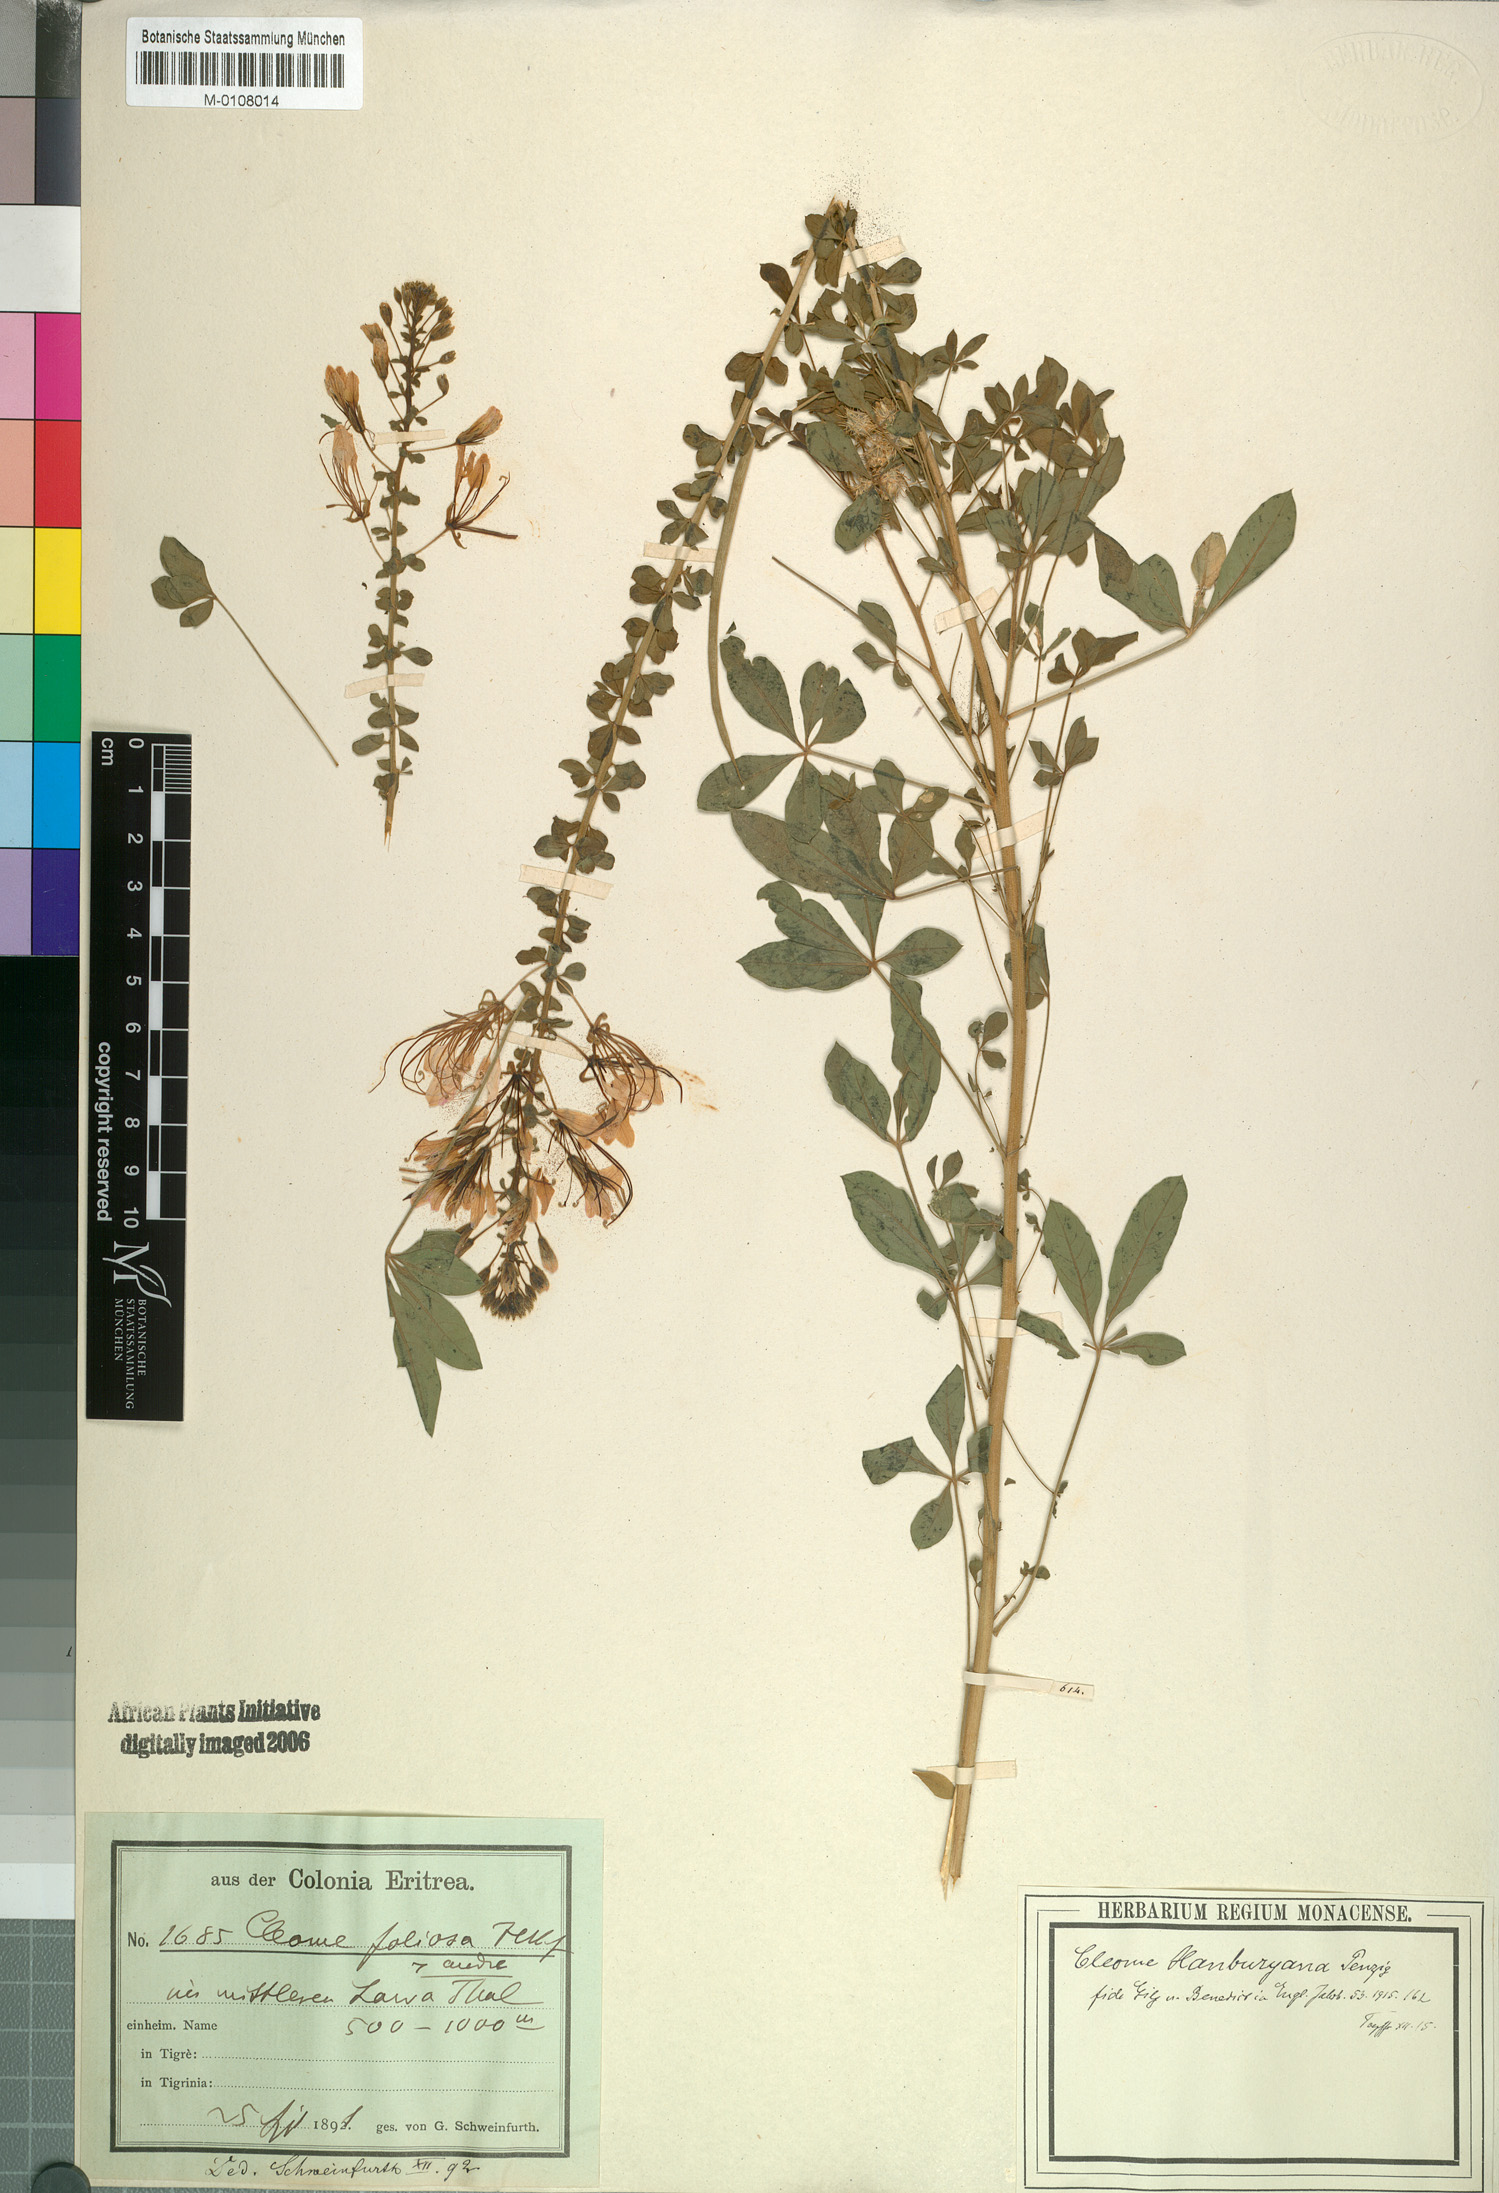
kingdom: Plantae
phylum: Tracheophyta
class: Magnoliopsida
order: Brassicales
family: Cleomaceae
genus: Sieruela
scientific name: Sieruela hanburyana
